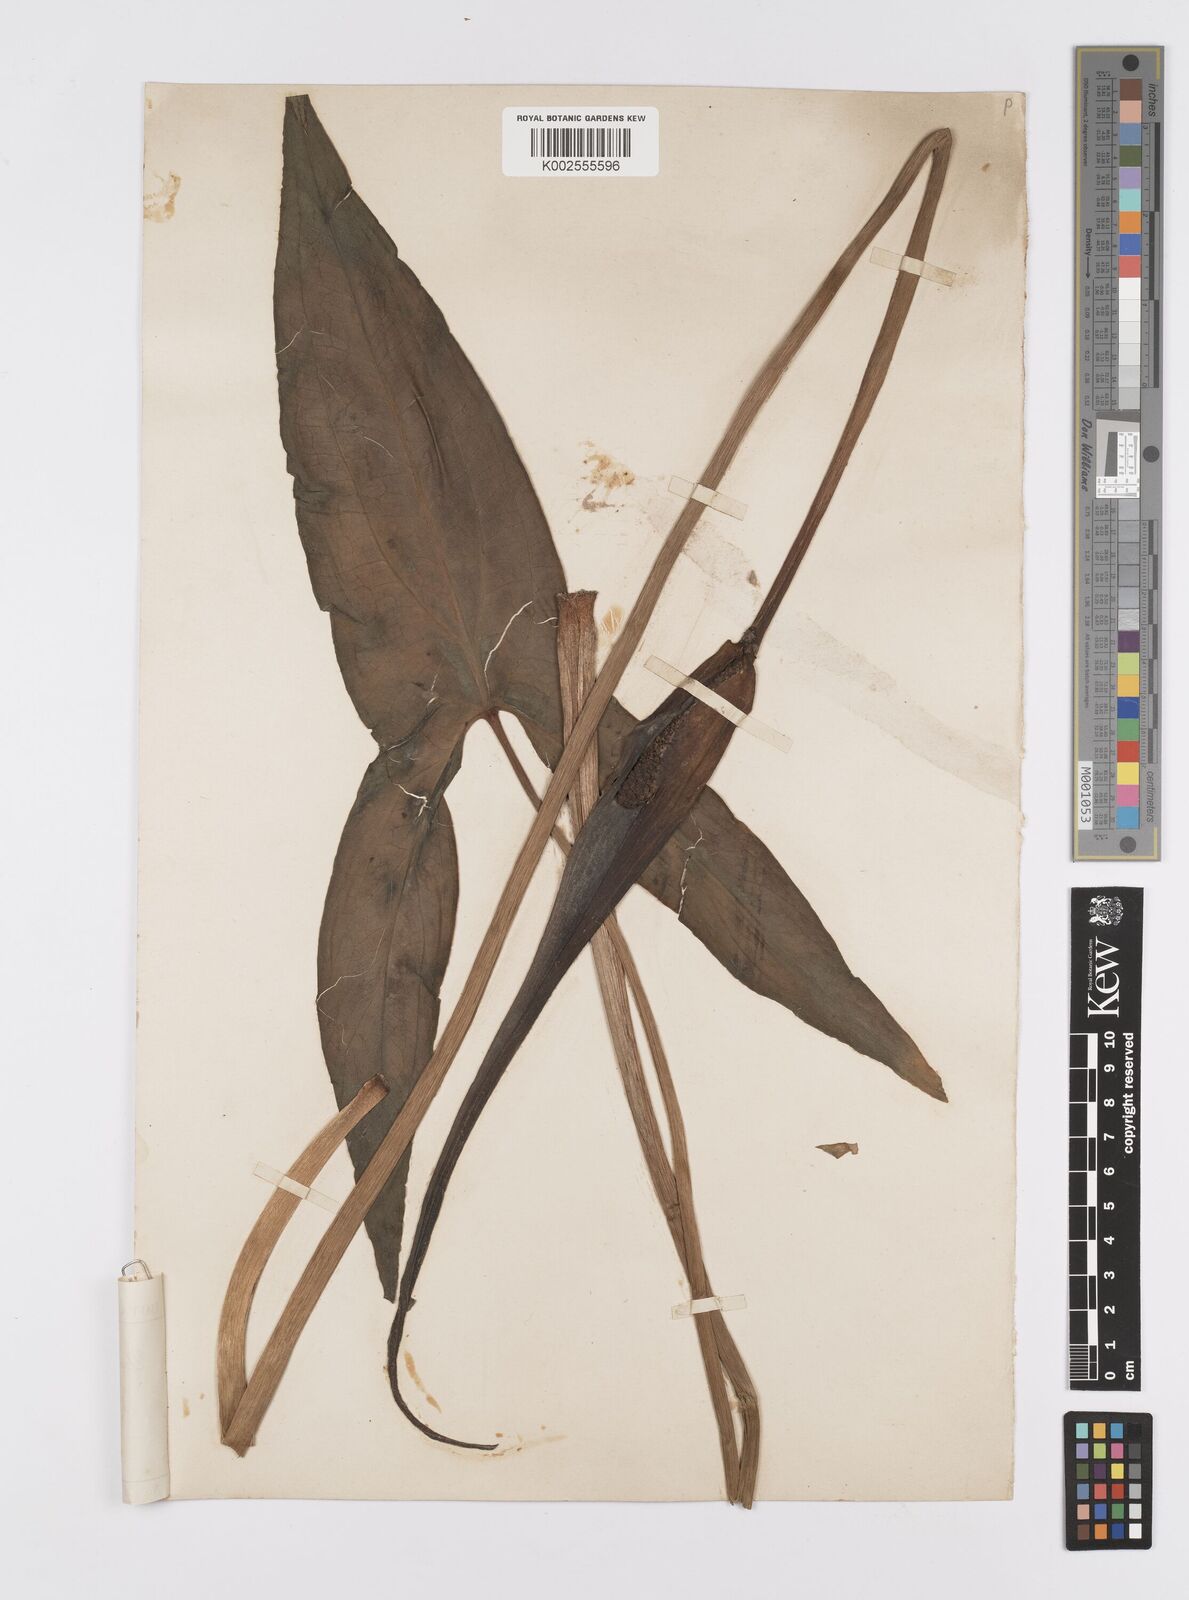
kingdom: Plantae
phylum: Tracheophyta
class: Liliopsida
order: Alismatales
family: Araceae
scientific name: Araceae
